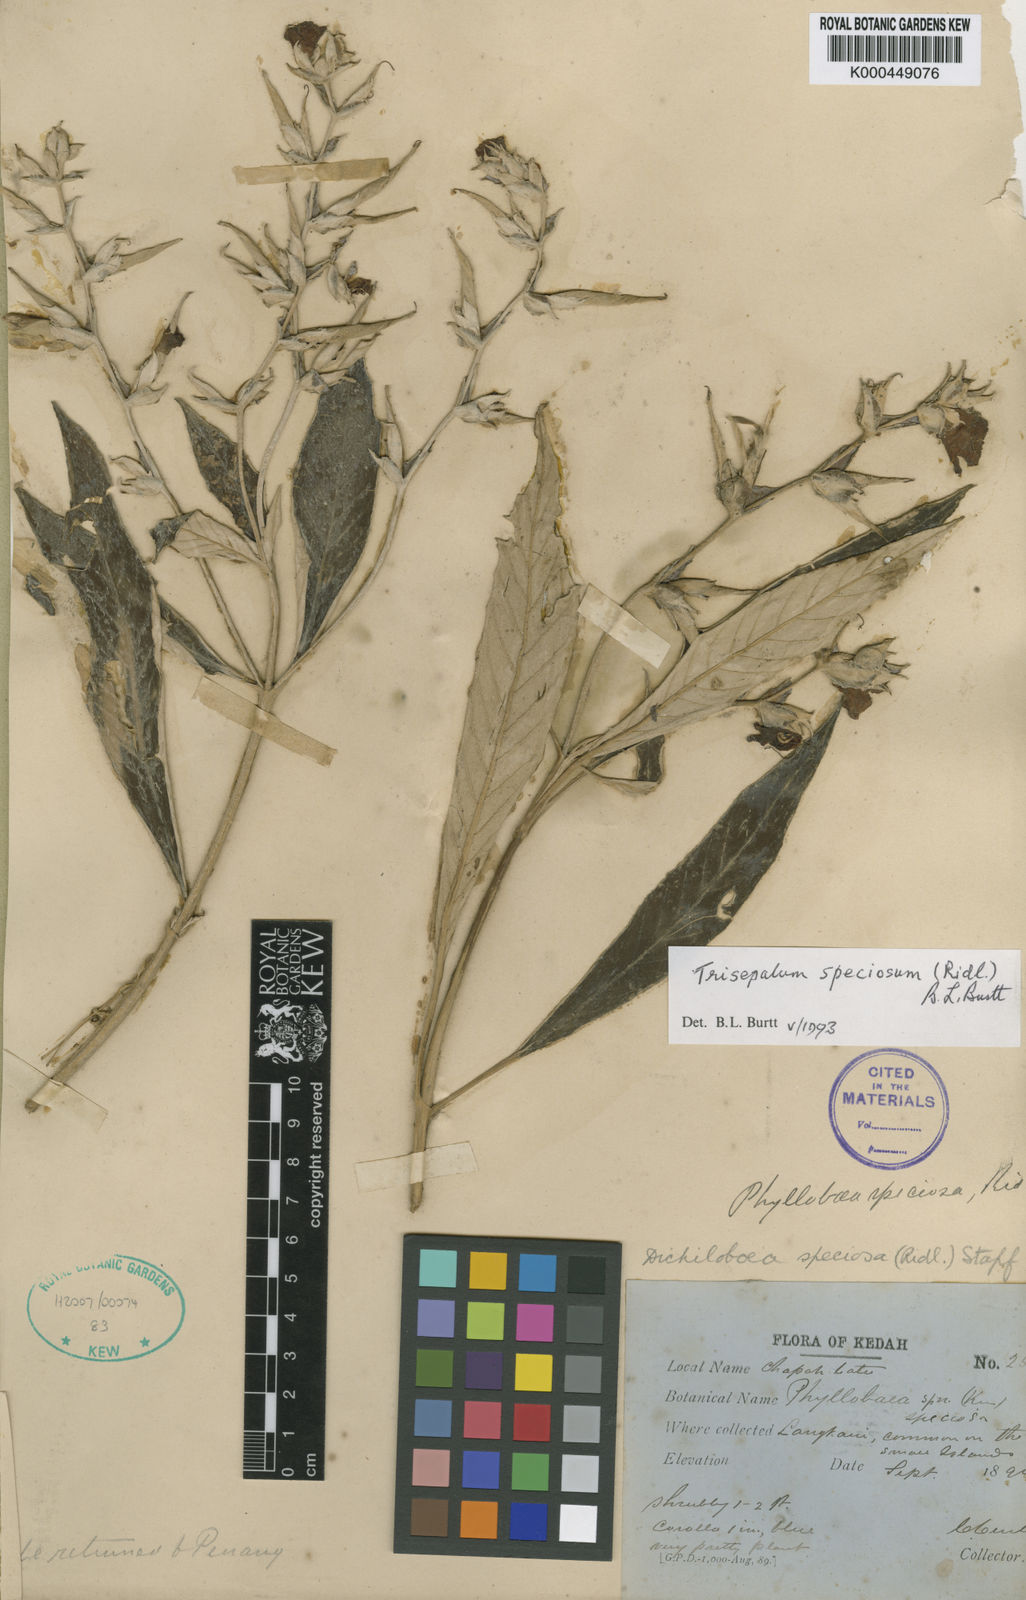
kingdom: Plantae
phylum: Tracheophyta
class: Magnoliopsida
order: Lamiales
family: Gesneriaceae
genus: Paraboea
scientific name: Paraboea barnettiae
